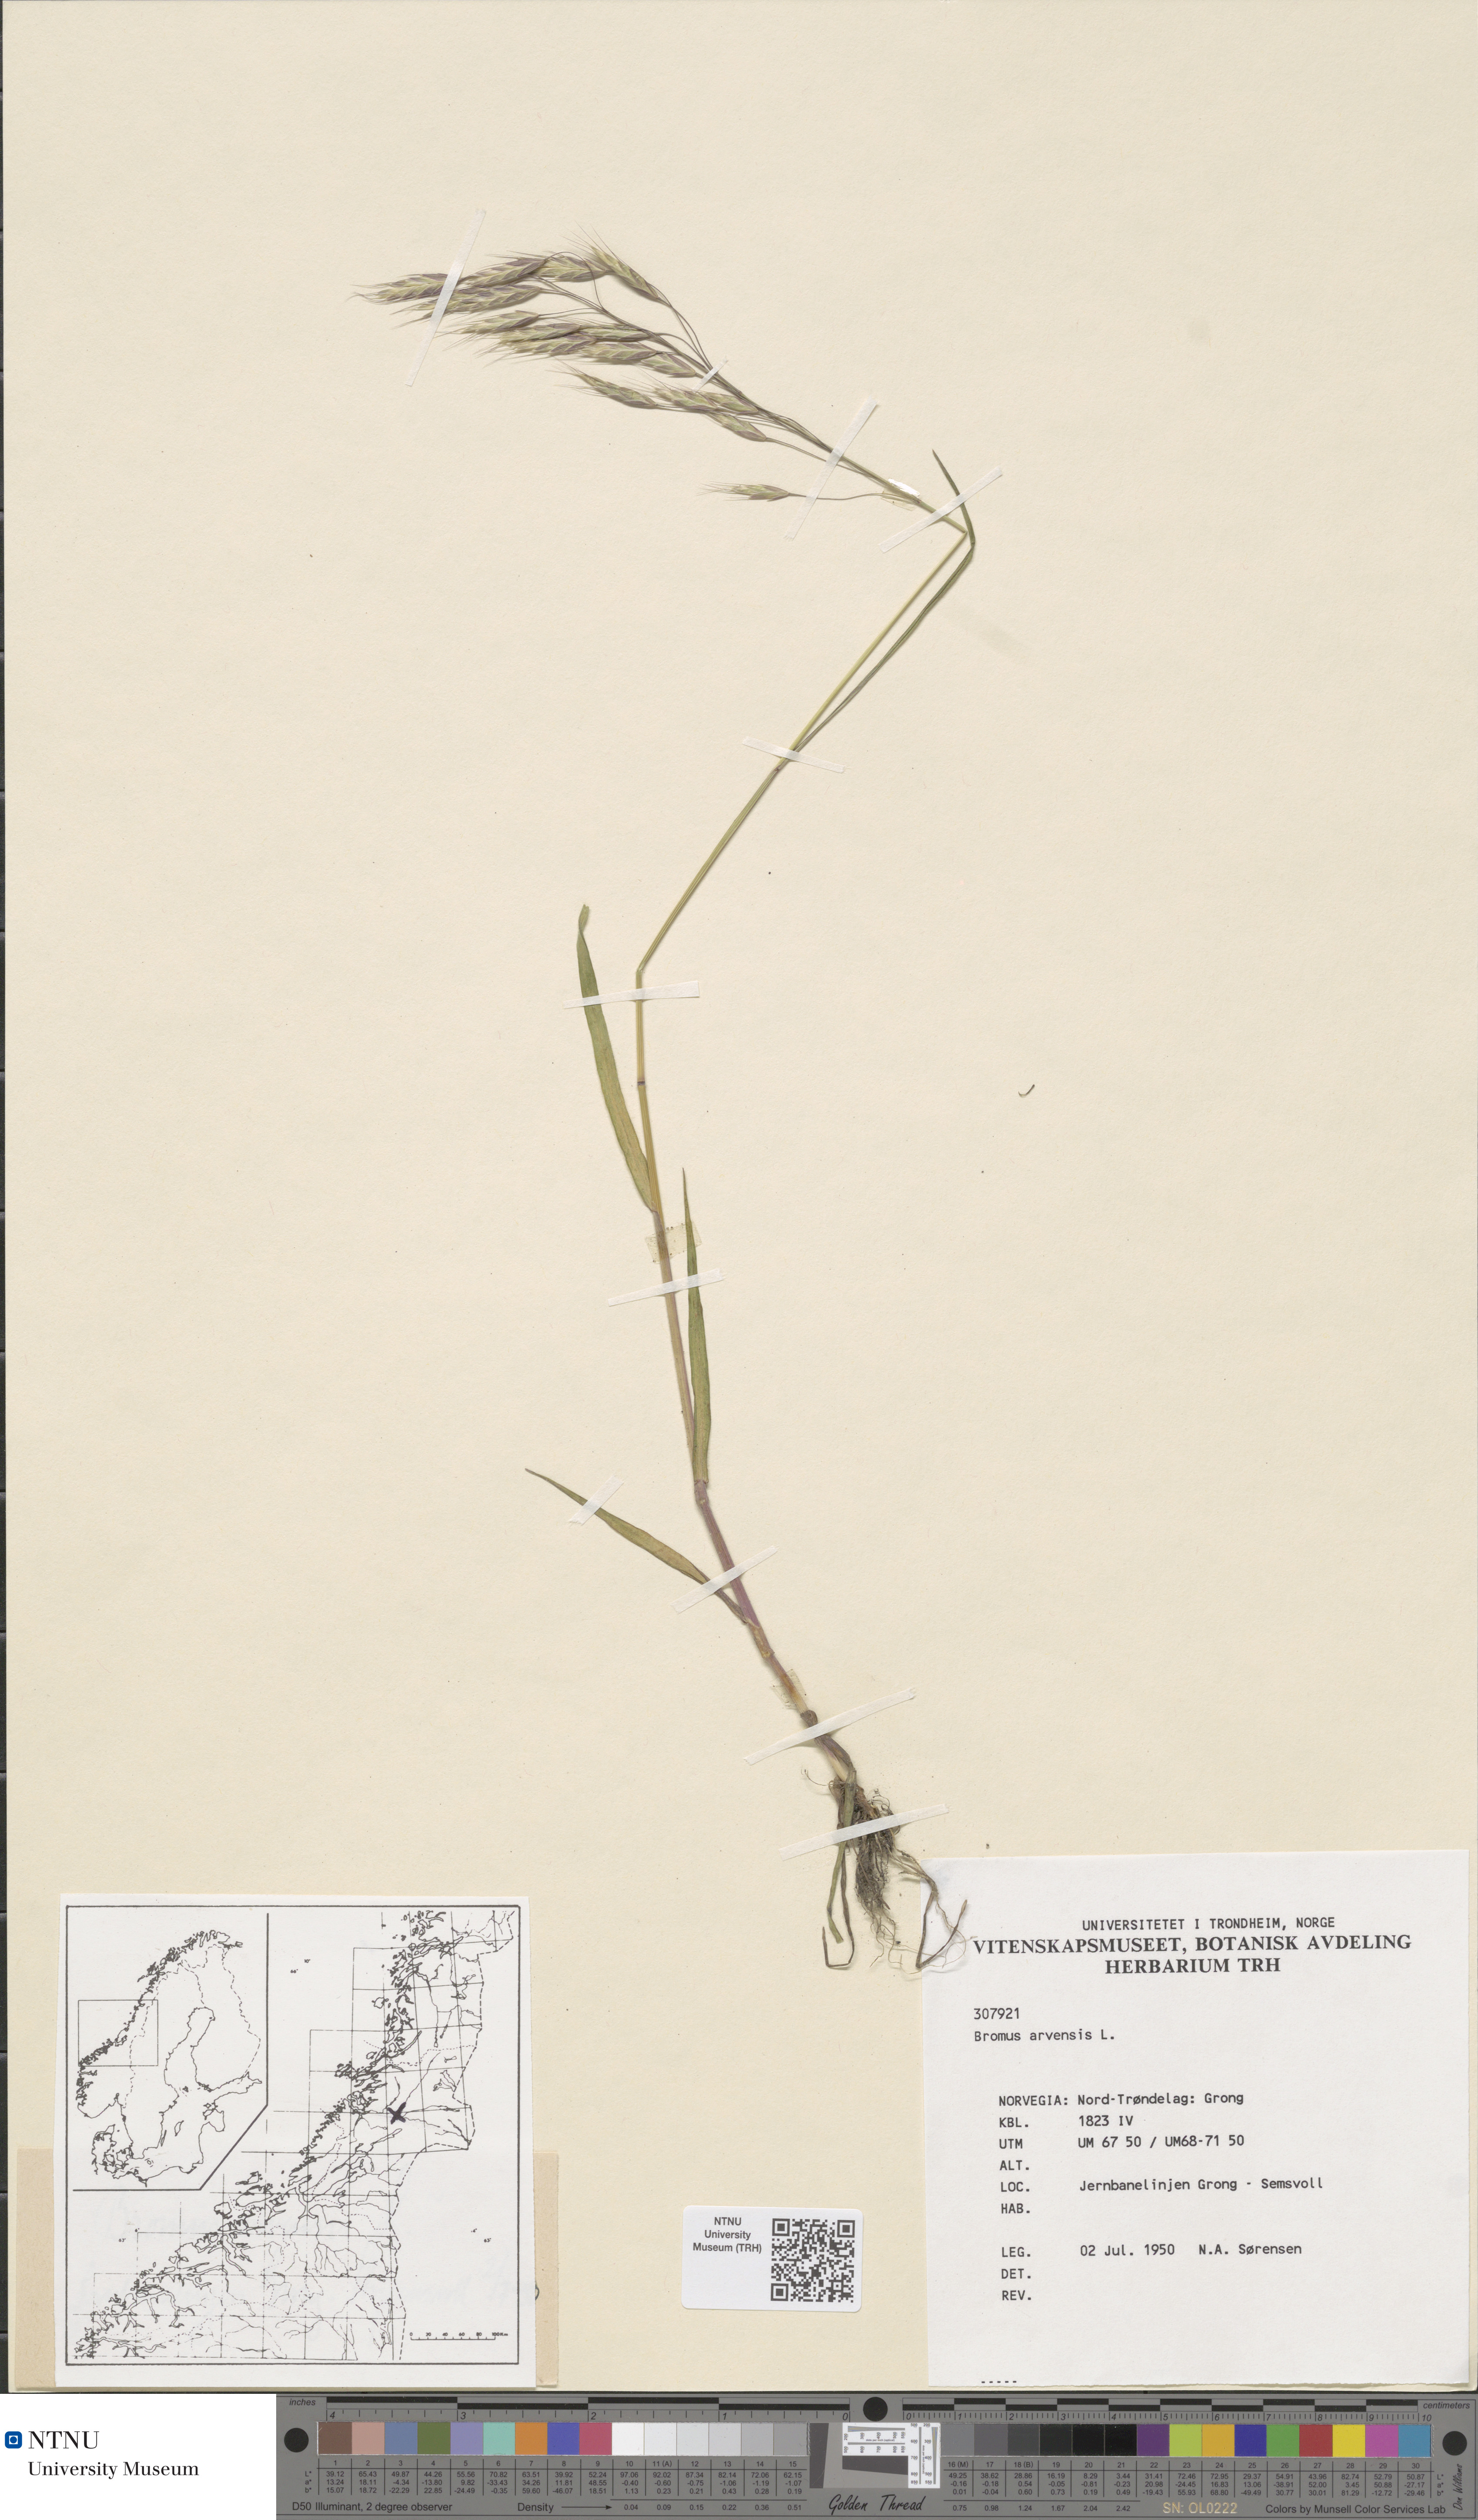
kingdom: Plantae
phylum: Tracheophyta
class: Liliopsida
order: Poales
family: Poaceae
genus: Bromus
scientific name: Bromus arvensis
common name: Field brome
